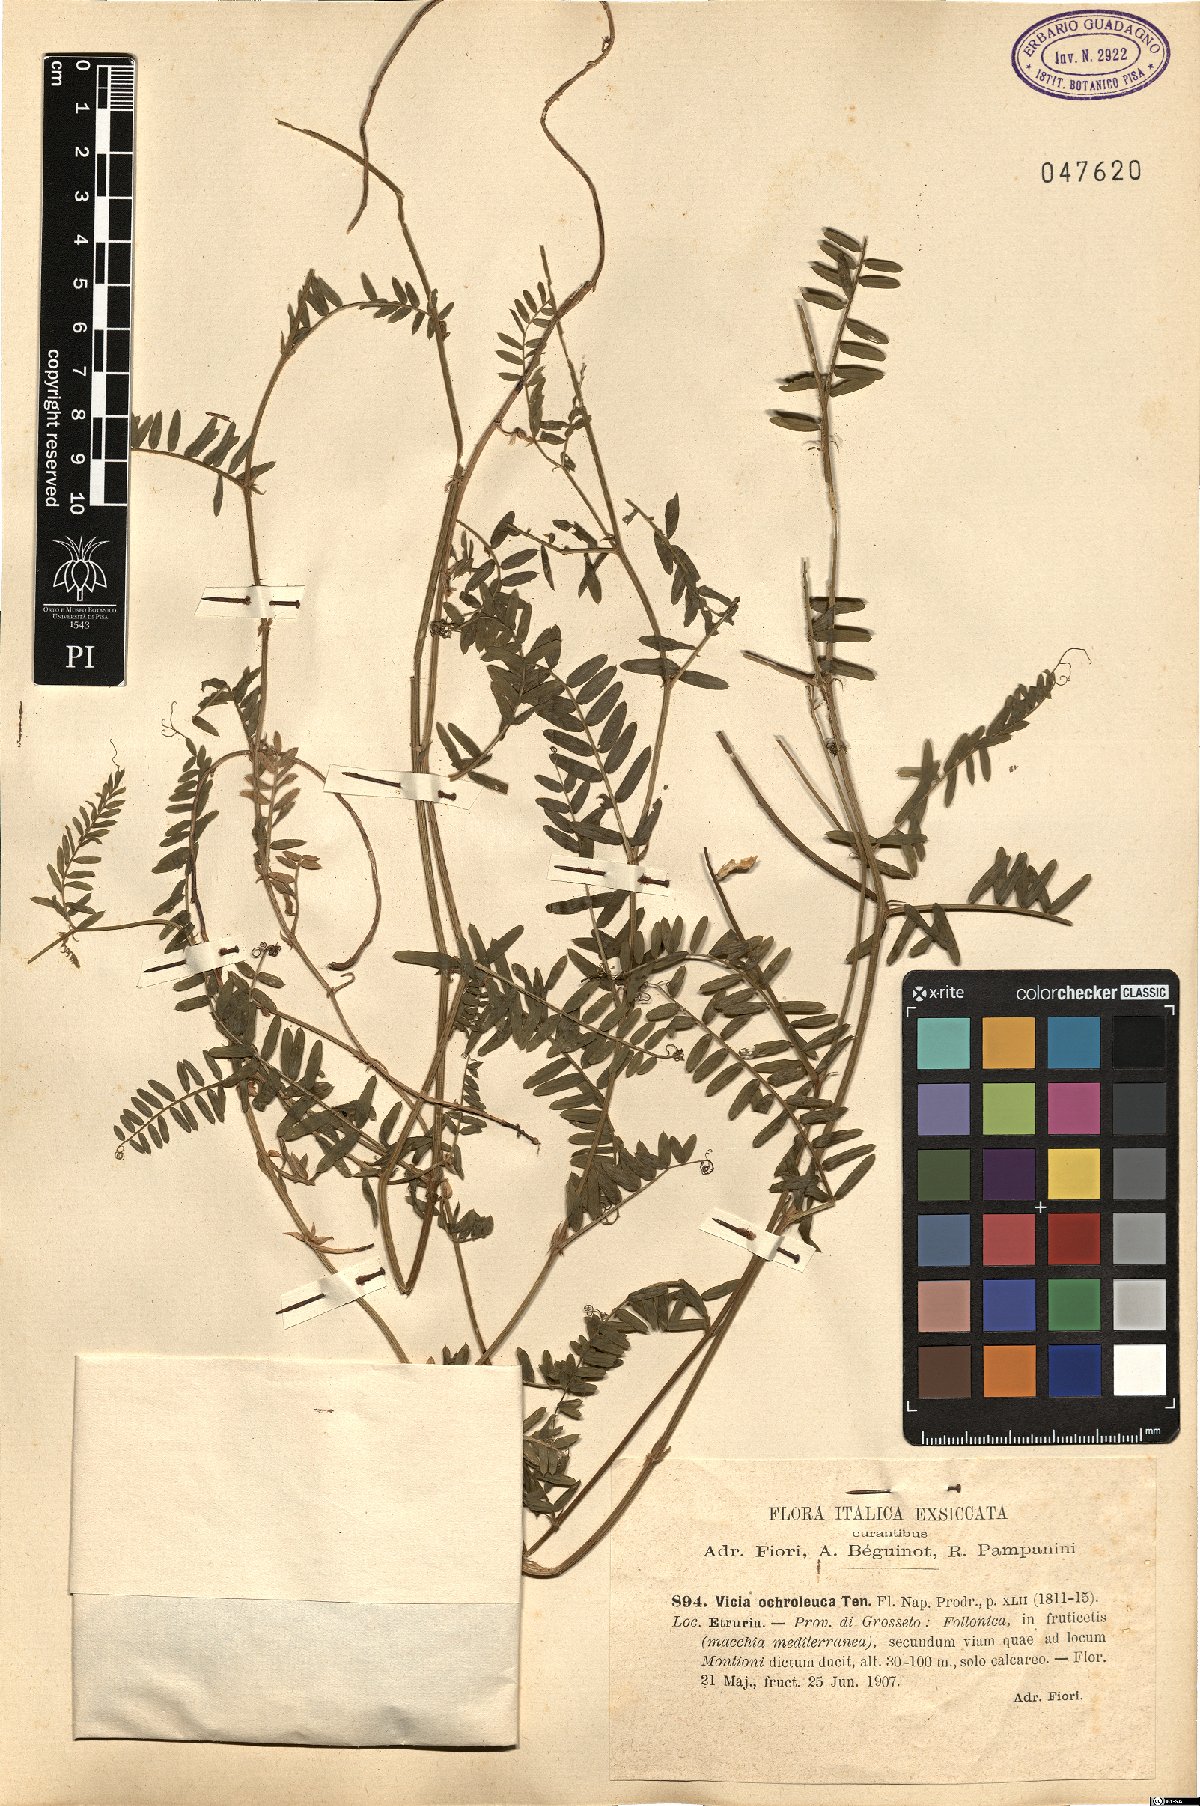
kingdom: Plantae
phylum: Tracheophyta
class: Magnoliopsida
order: Fabales
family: Fabaceae
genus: Vicia
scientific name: Vicia ochroleuca
